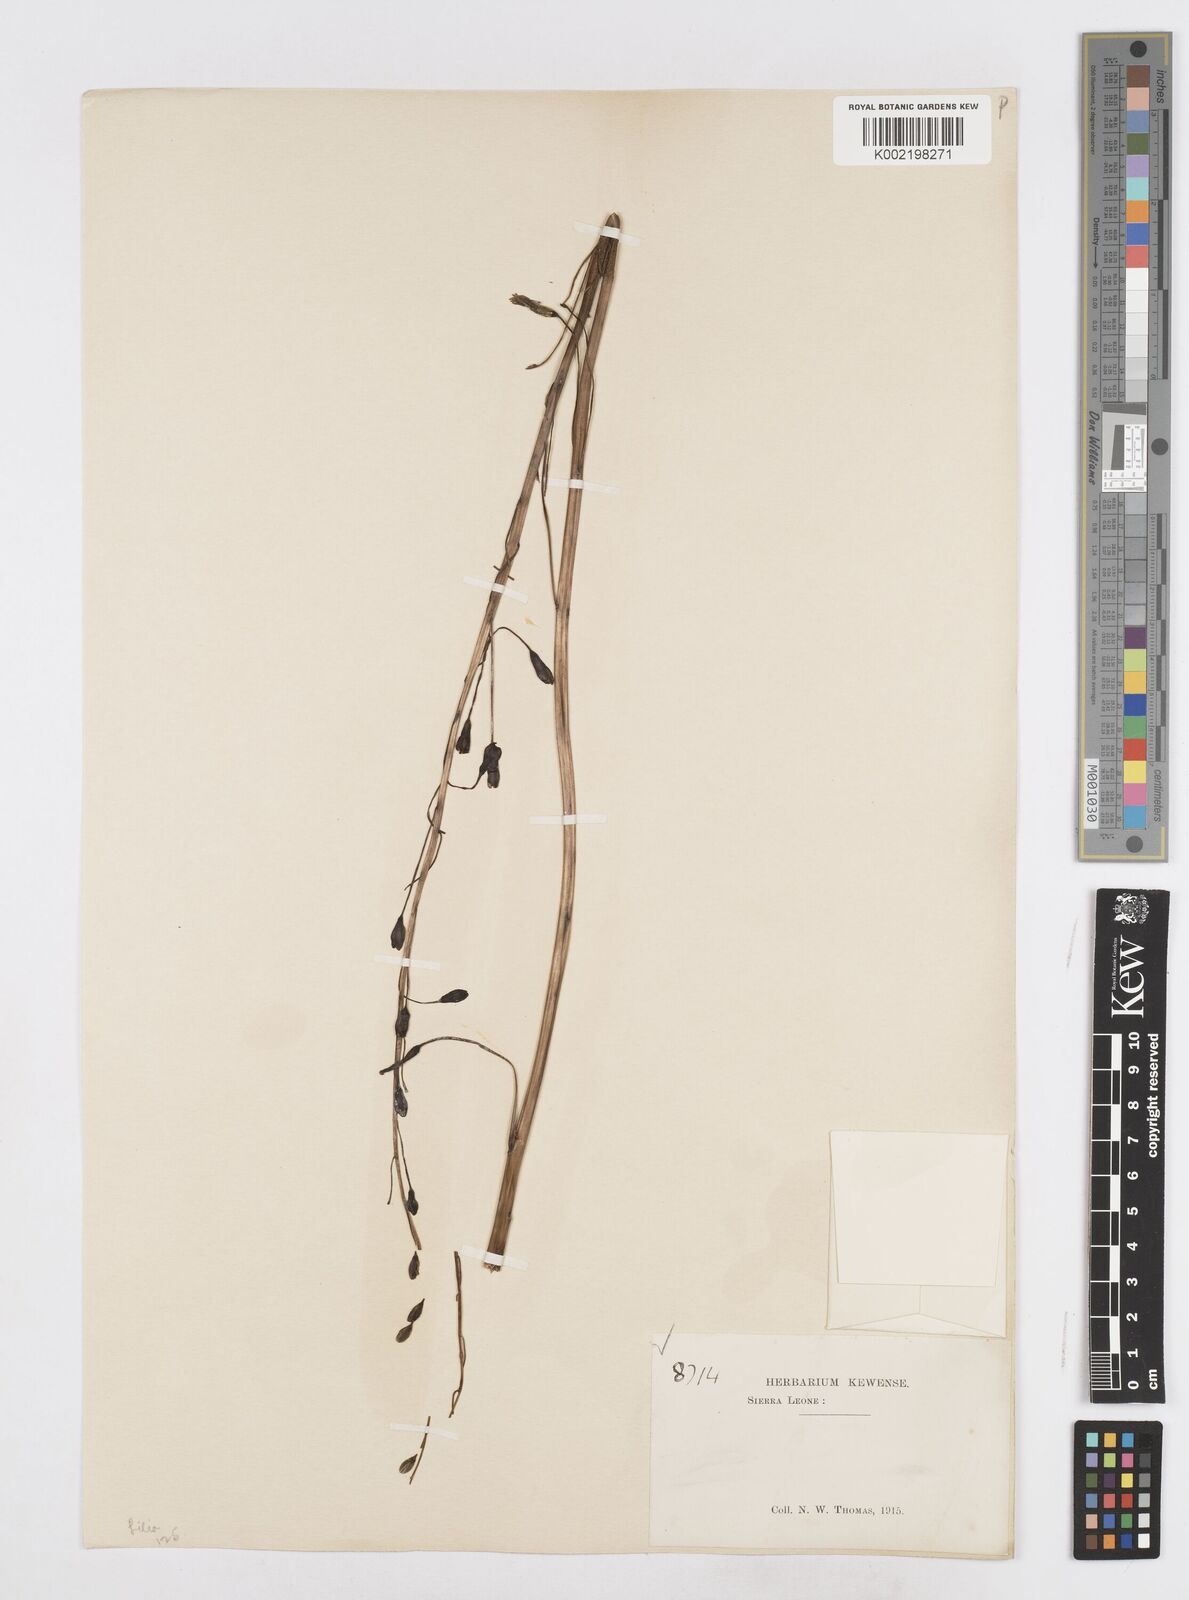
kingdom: Plantae
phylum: Tracheophyta
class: Liliopsida
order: Asparagales
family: Asparagaceae
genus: Drimia
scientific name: Drimia indica
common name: Indian-squill
